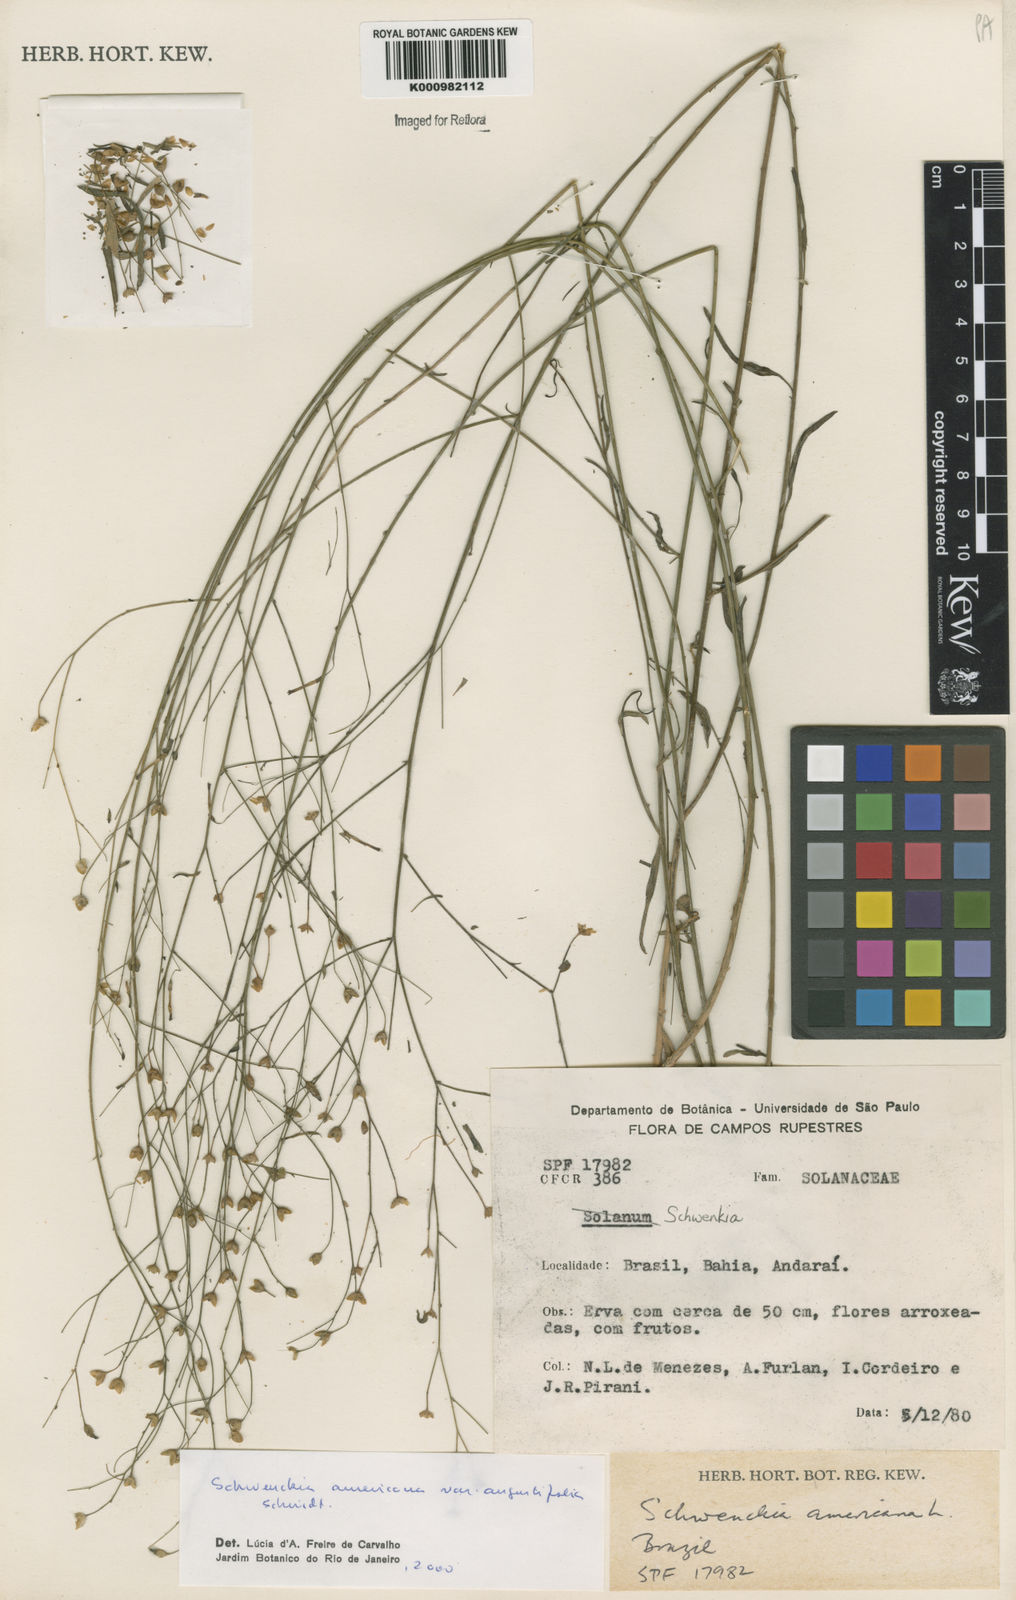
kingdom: Plantae
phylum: Tracheophyta
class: Magnoliopsida
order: Solanales
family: Solanaceae
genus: Schwenckia
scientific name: Schwenckia americana
